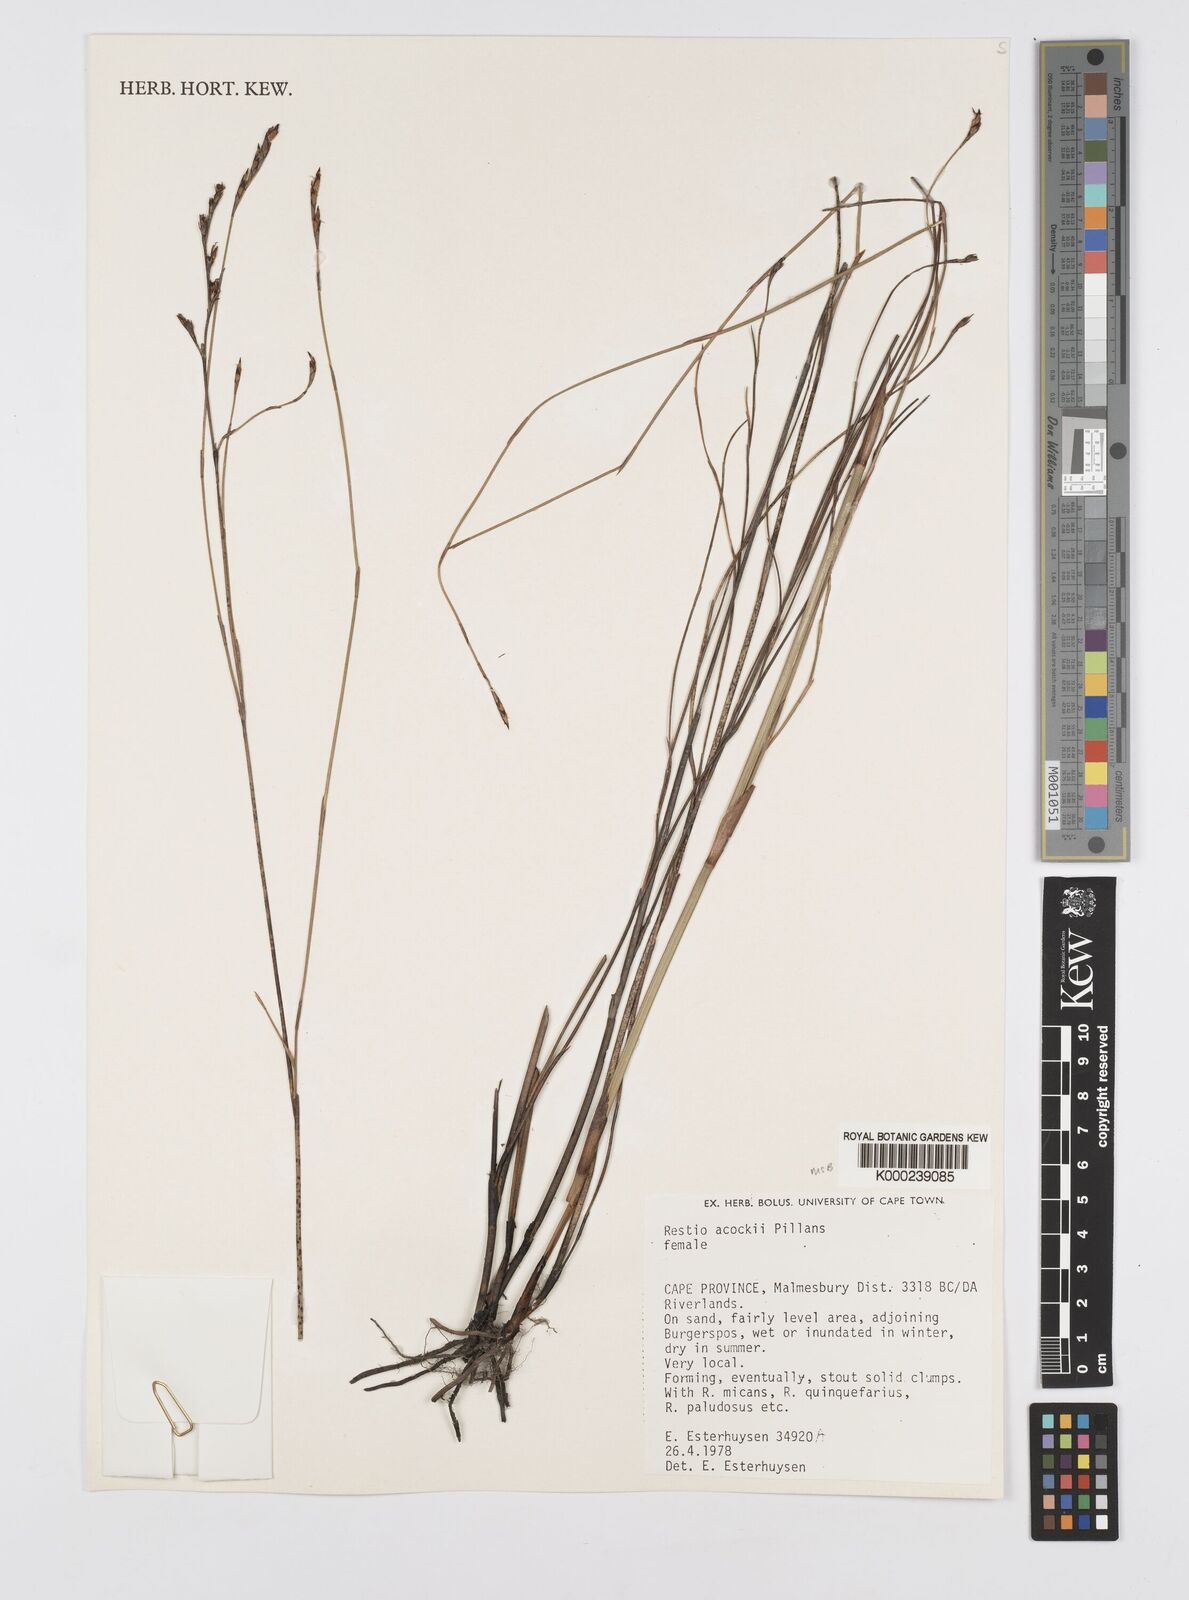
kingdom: Plantae
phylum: Tracheophyta
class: Liliopsida
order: Poales
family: Restionaceae
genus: Restio
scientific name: Restio acockii
